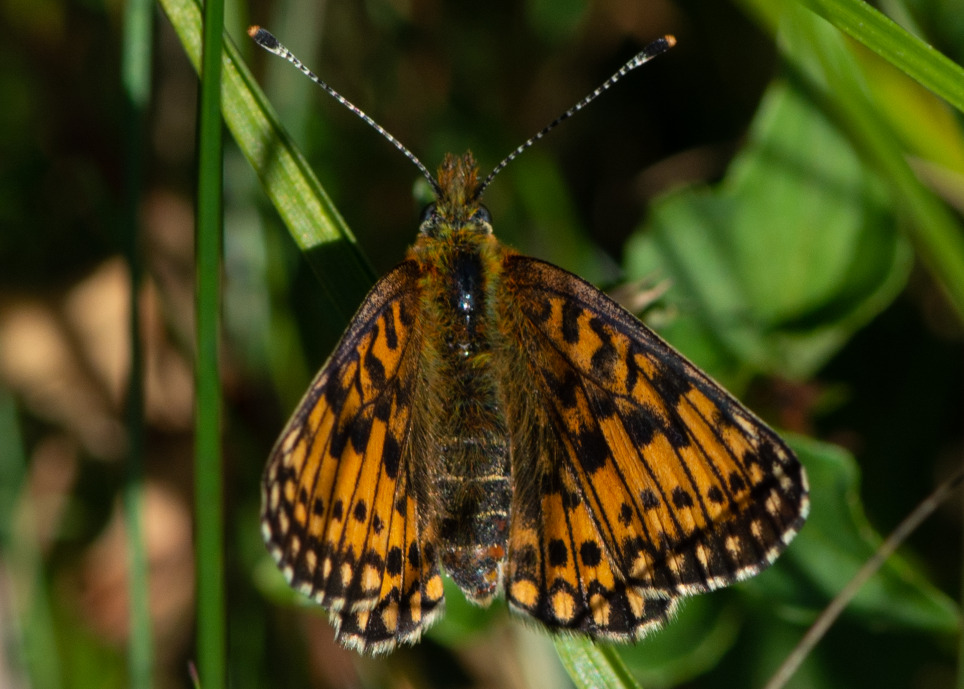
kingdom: Animalia
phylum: Arthropoda
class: Insecta
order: Lepidoptera
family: Nymphalidae
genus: Boloria
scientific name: Boloria selene
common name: Brunlig perlemorsommerfugl
